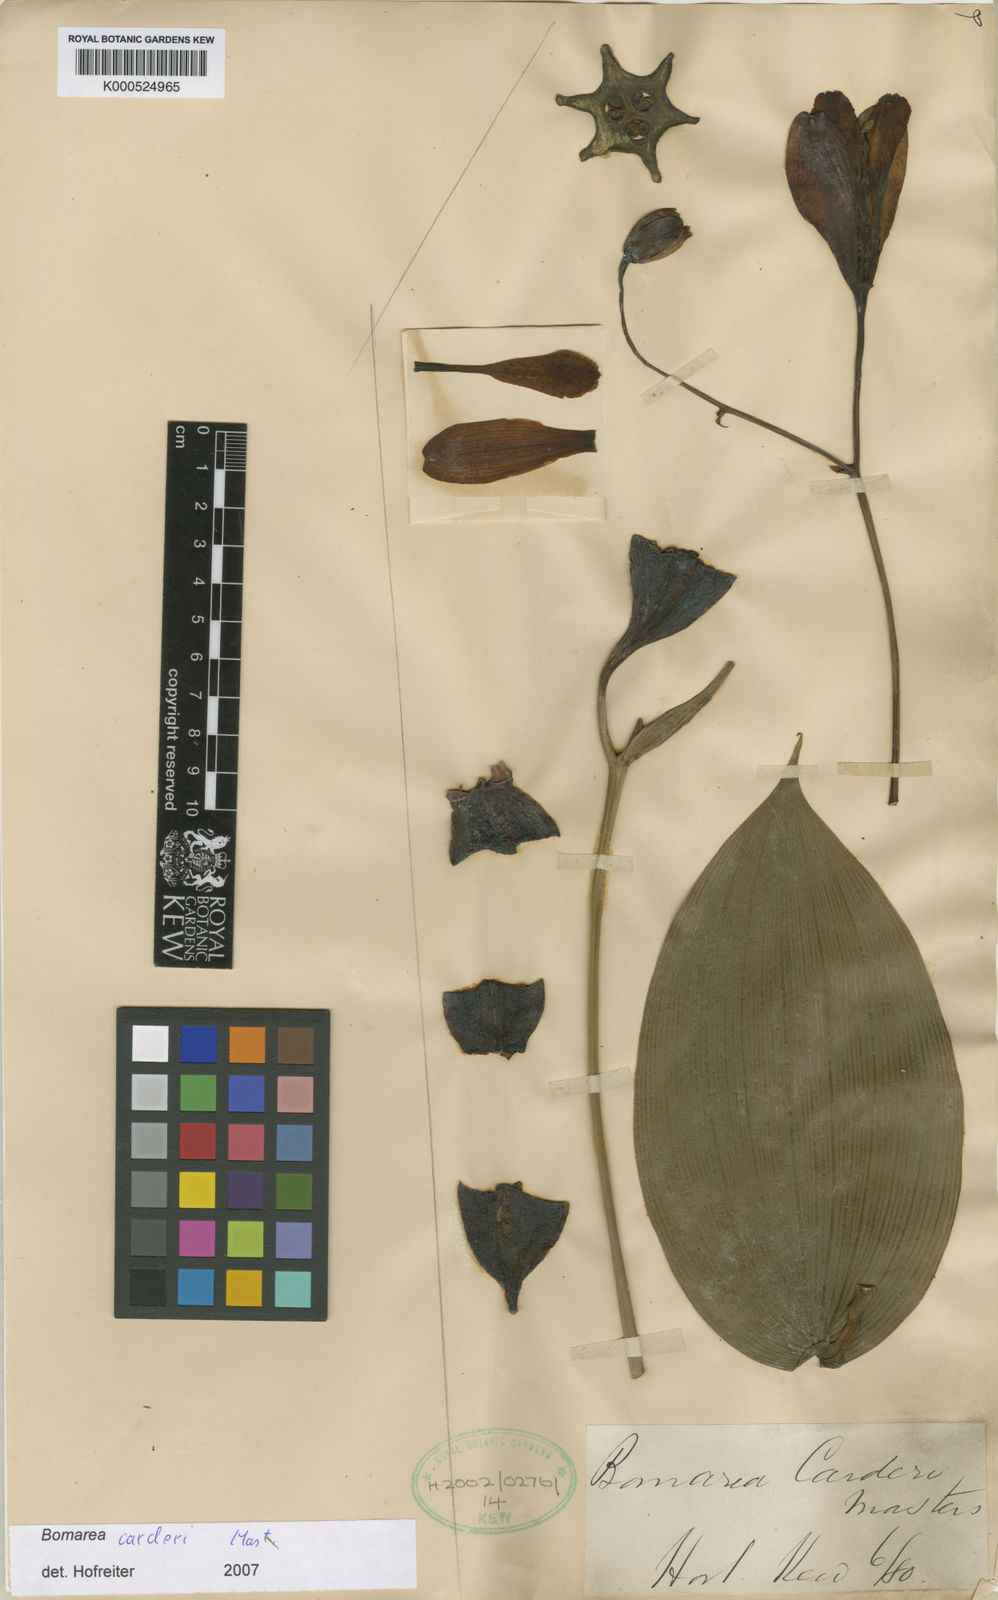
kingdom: Plantae
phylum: Tracheophyta
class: Liliopsida
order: Liliales
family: Alstroemeriaceae
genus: Bomarea
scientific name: Bomarea carderi
